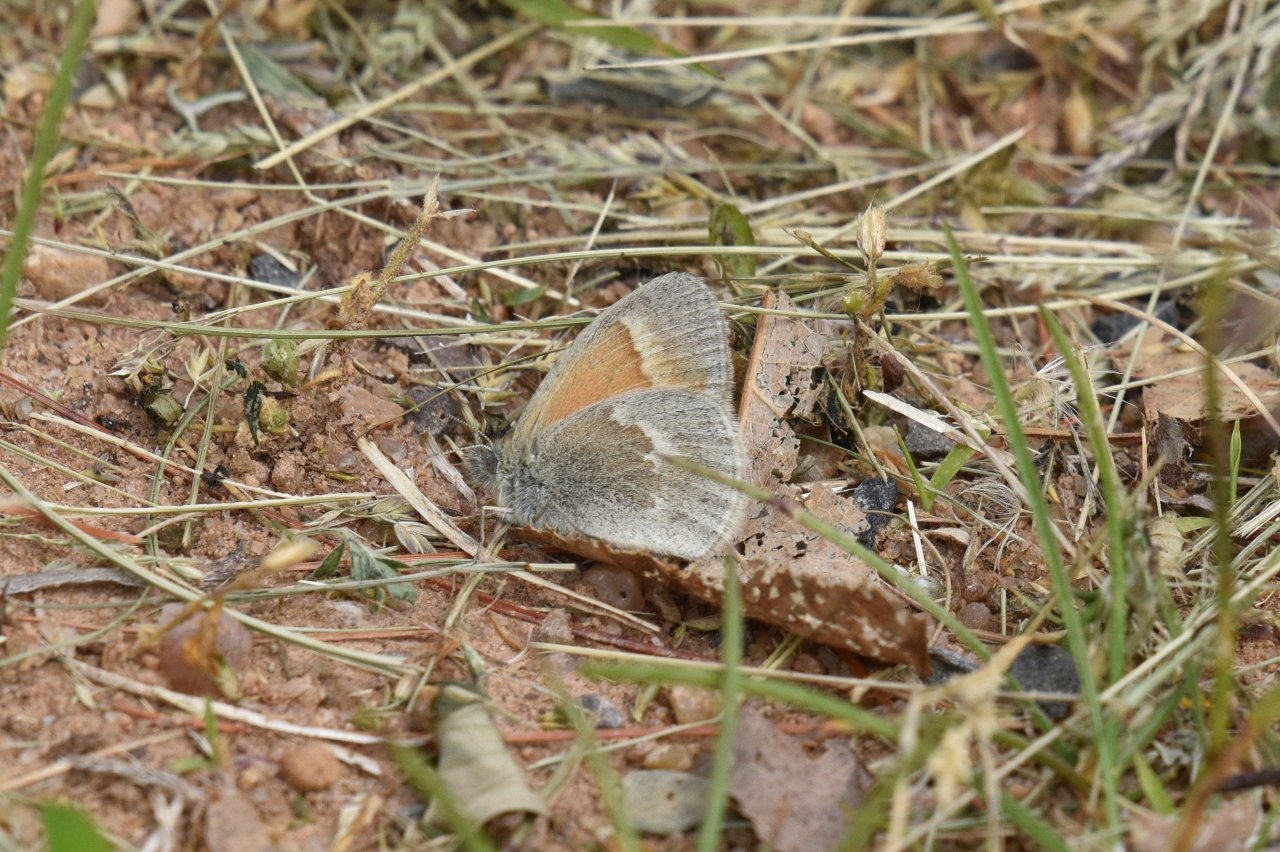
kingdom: Animalia
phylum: Arthropoda
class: Insecta
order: Lepidoptera
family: Nymphalidae
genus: Coenonympha
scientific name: Coenonympha tullia
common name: Large Heath
